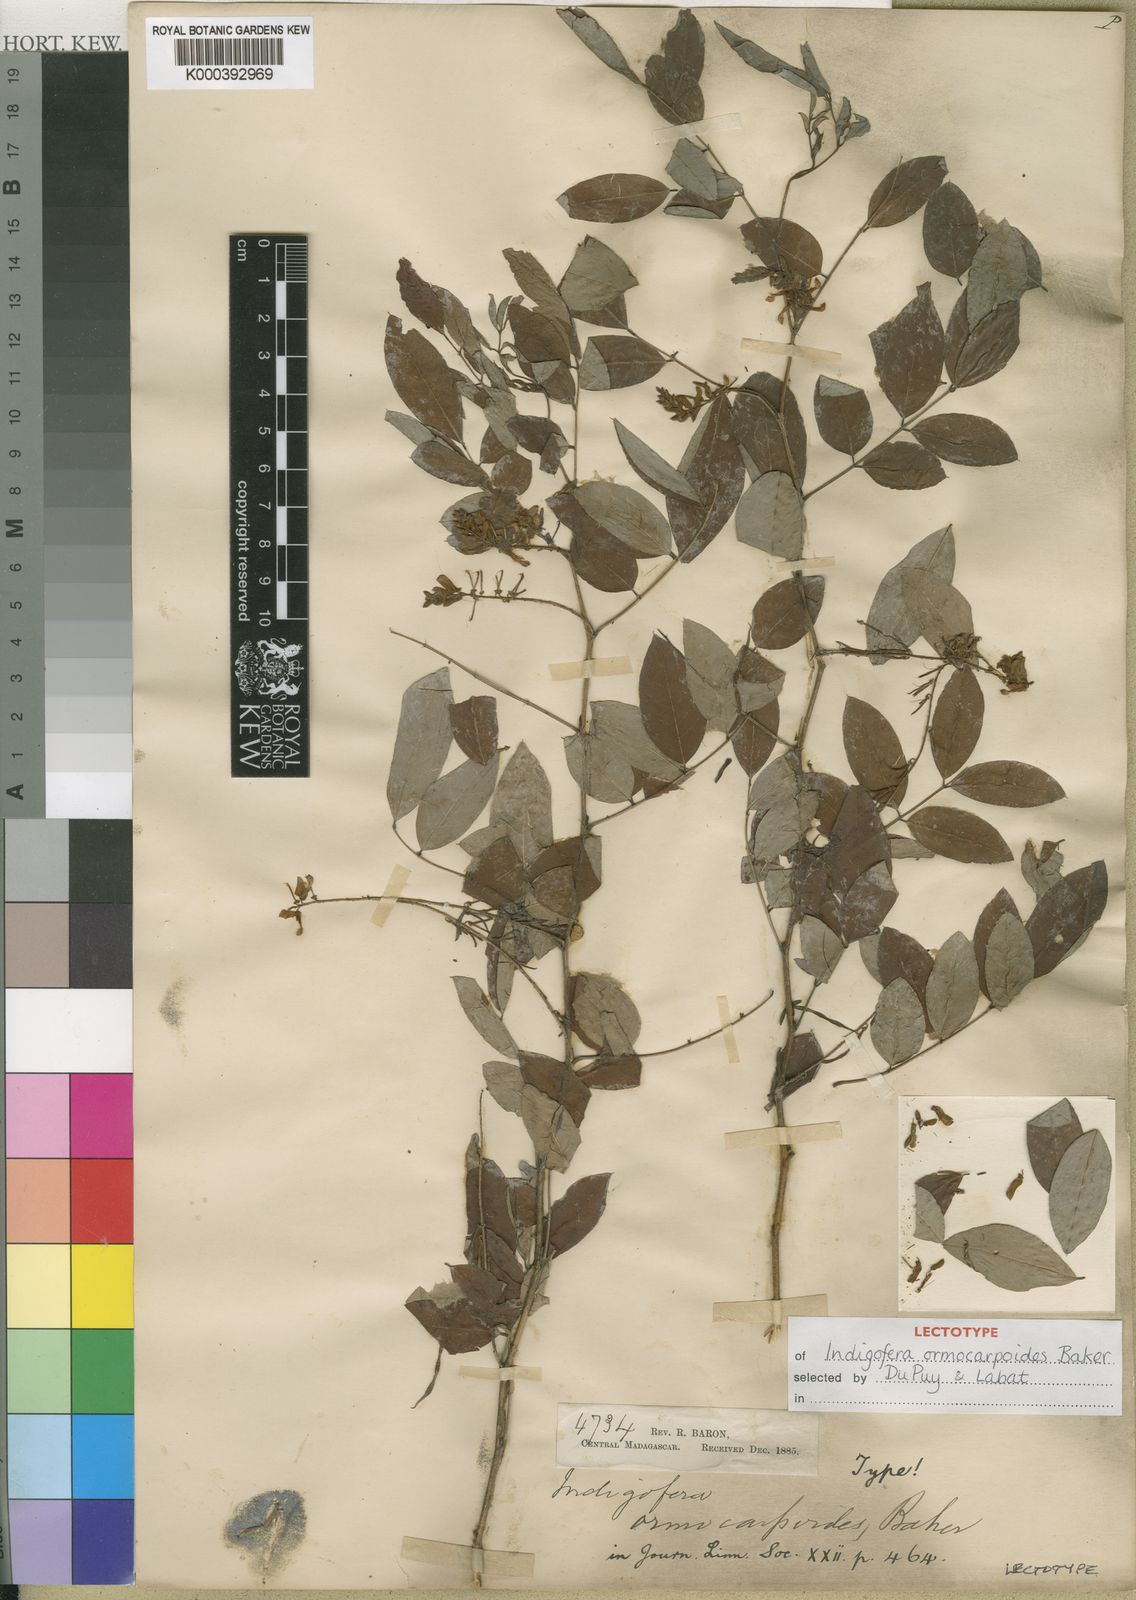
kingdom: Plantae
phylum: Tracheophyta
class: Magnoliopsida
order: Fabales
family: Fabaceae
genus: Indigofera
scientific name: Indigofera ormocarpoides
